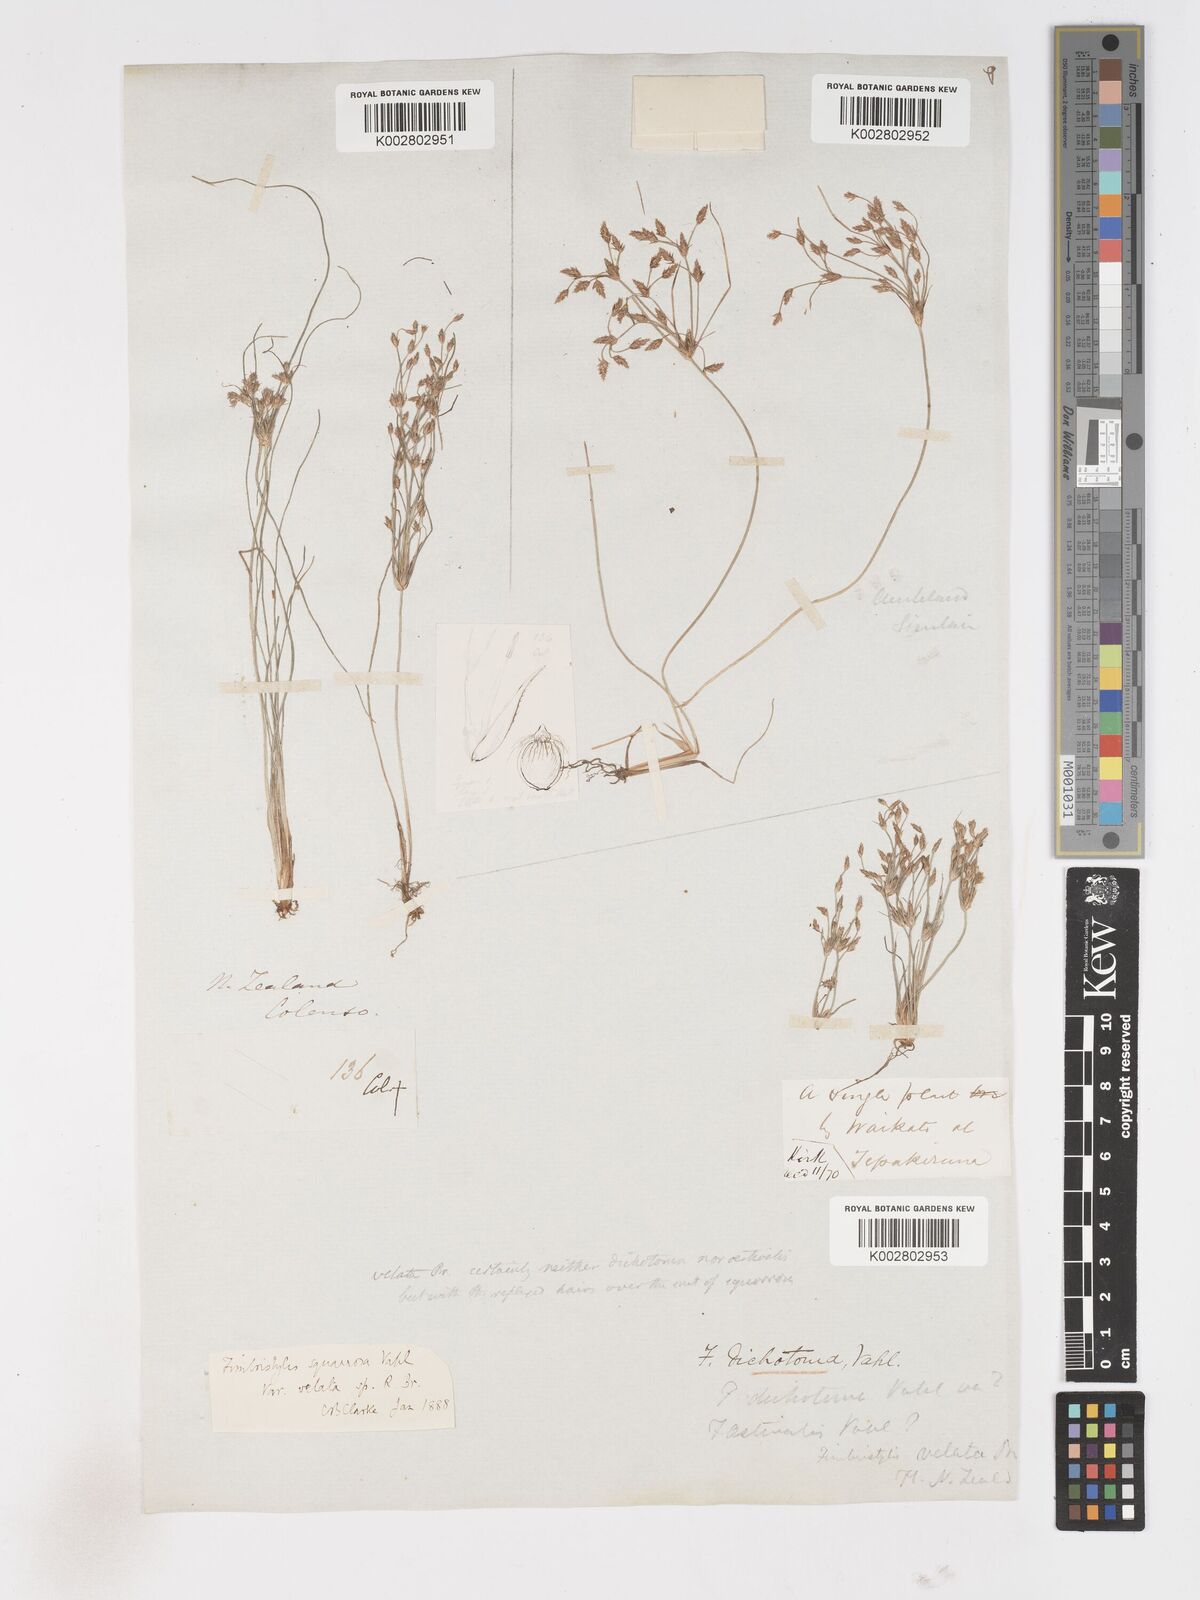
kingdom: Plantae
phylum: Tracheophyta
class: Liliopsida
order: Poales
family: Cyperaceae
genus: Fimbristylis
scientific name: Fimbristylis velata
